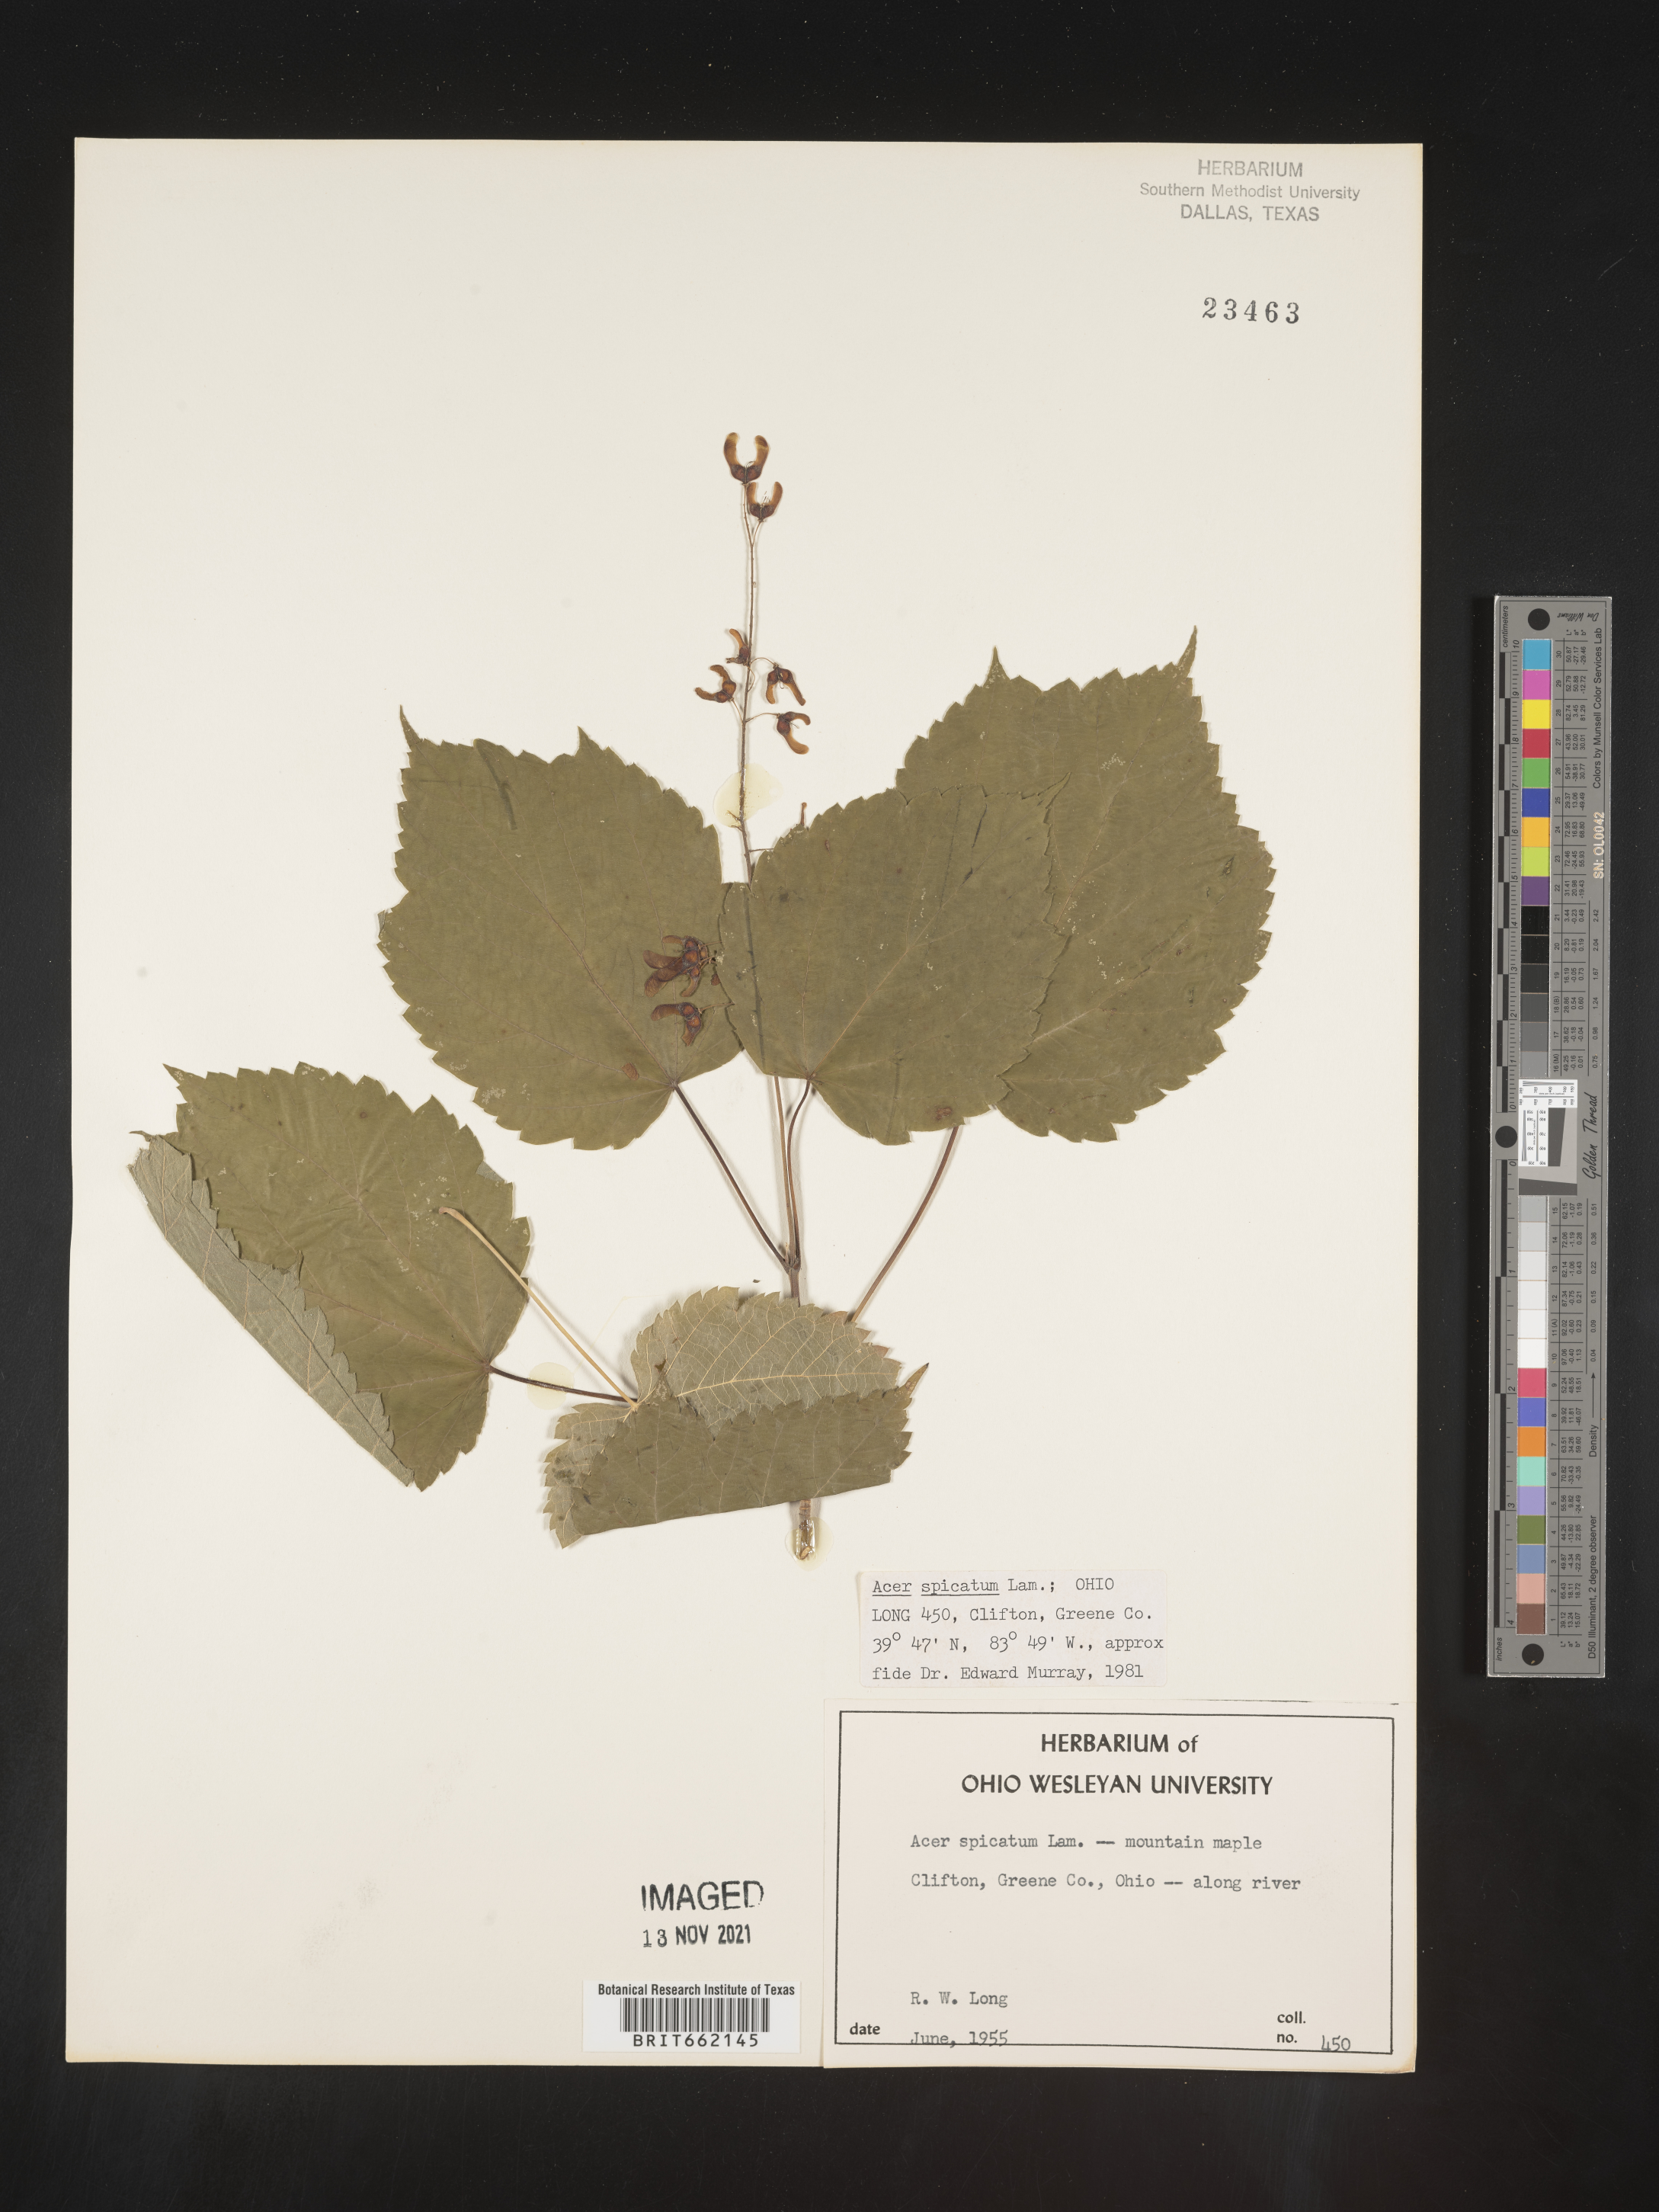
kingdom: Plantae
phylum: Tracheophyta
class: Magnoliopsida
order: Sapindales
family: Sapindaceae
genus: Acer
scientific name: Acer spicatum
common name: Mountain maple
